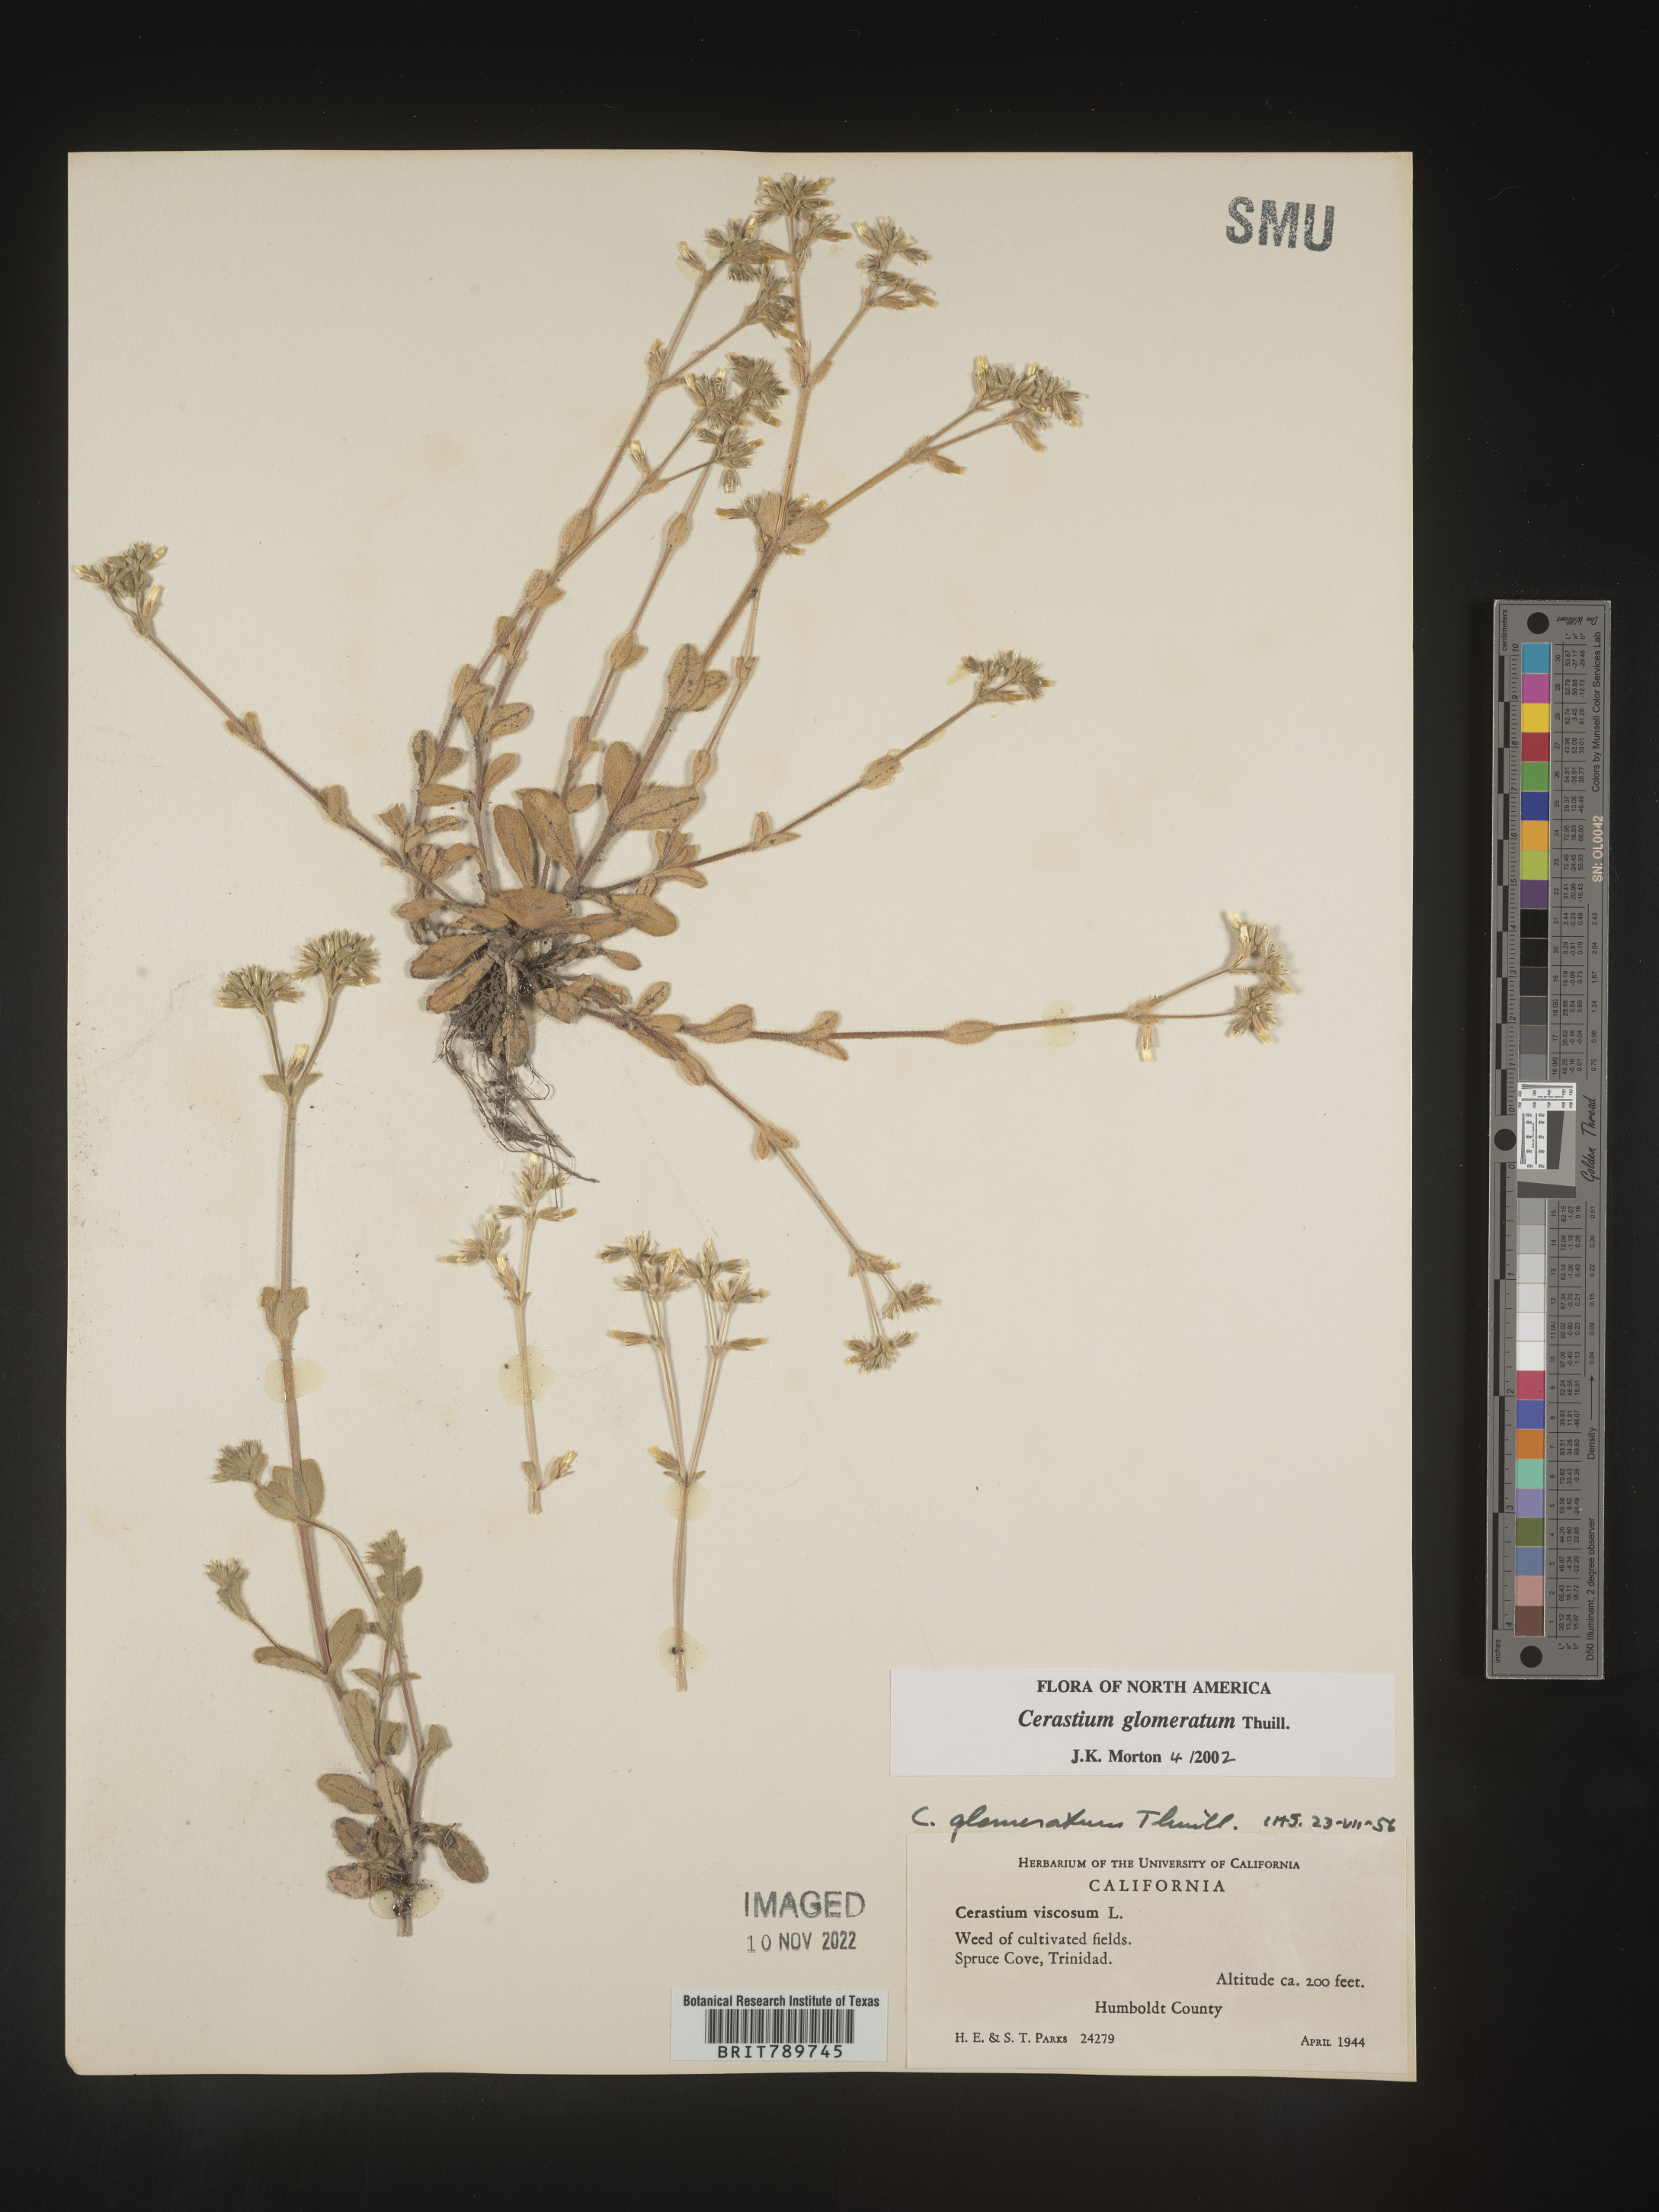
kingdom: Plantae
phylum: Tracheophyta
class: Magnoliopsida
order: Caryophyllales
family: Caryophyllaceae
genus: Cerastium
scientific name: Cerastium glomeratum
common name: Sticky chickweed
